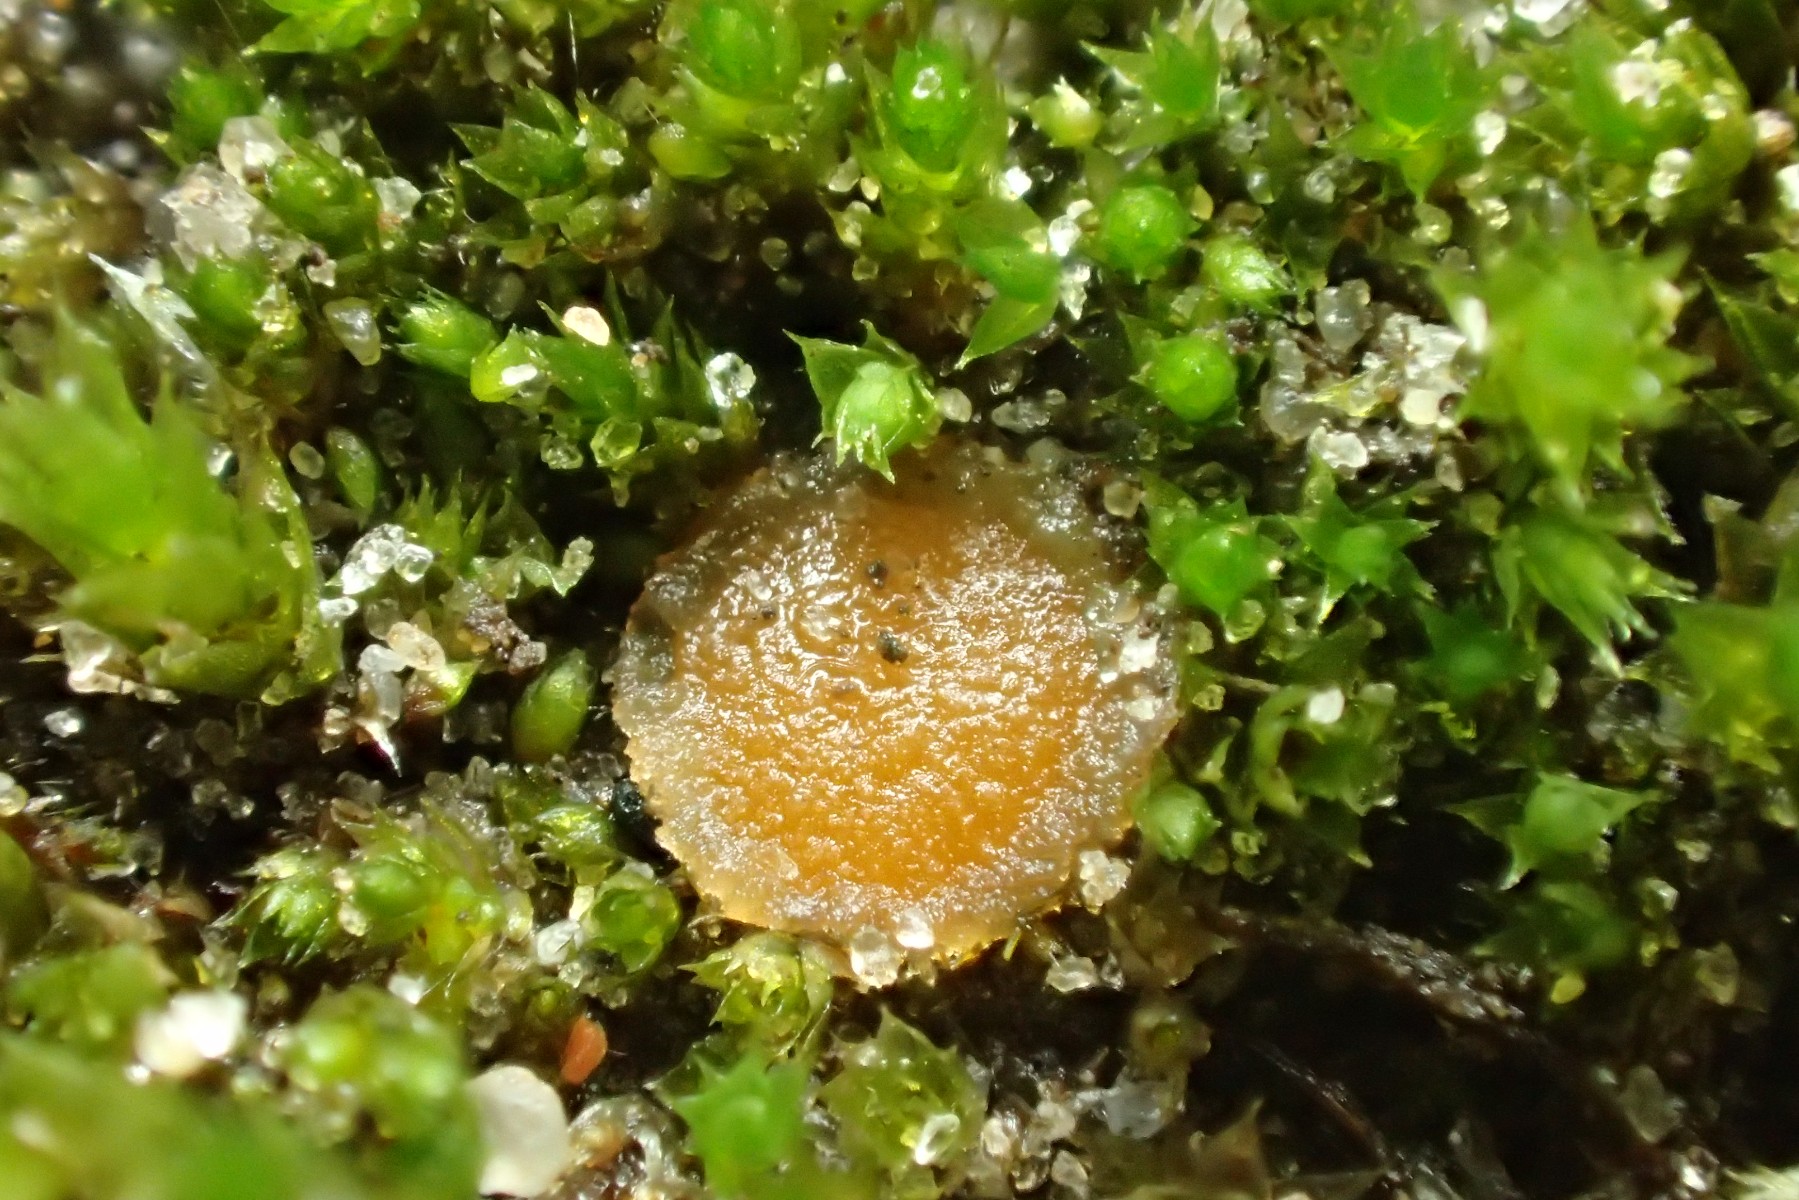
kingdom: Fungi
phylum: Ascomycota
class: Pezizomycetes
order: Pezizales
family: Pyronemataceae
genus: Octospora
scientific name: Octospora coccinea
